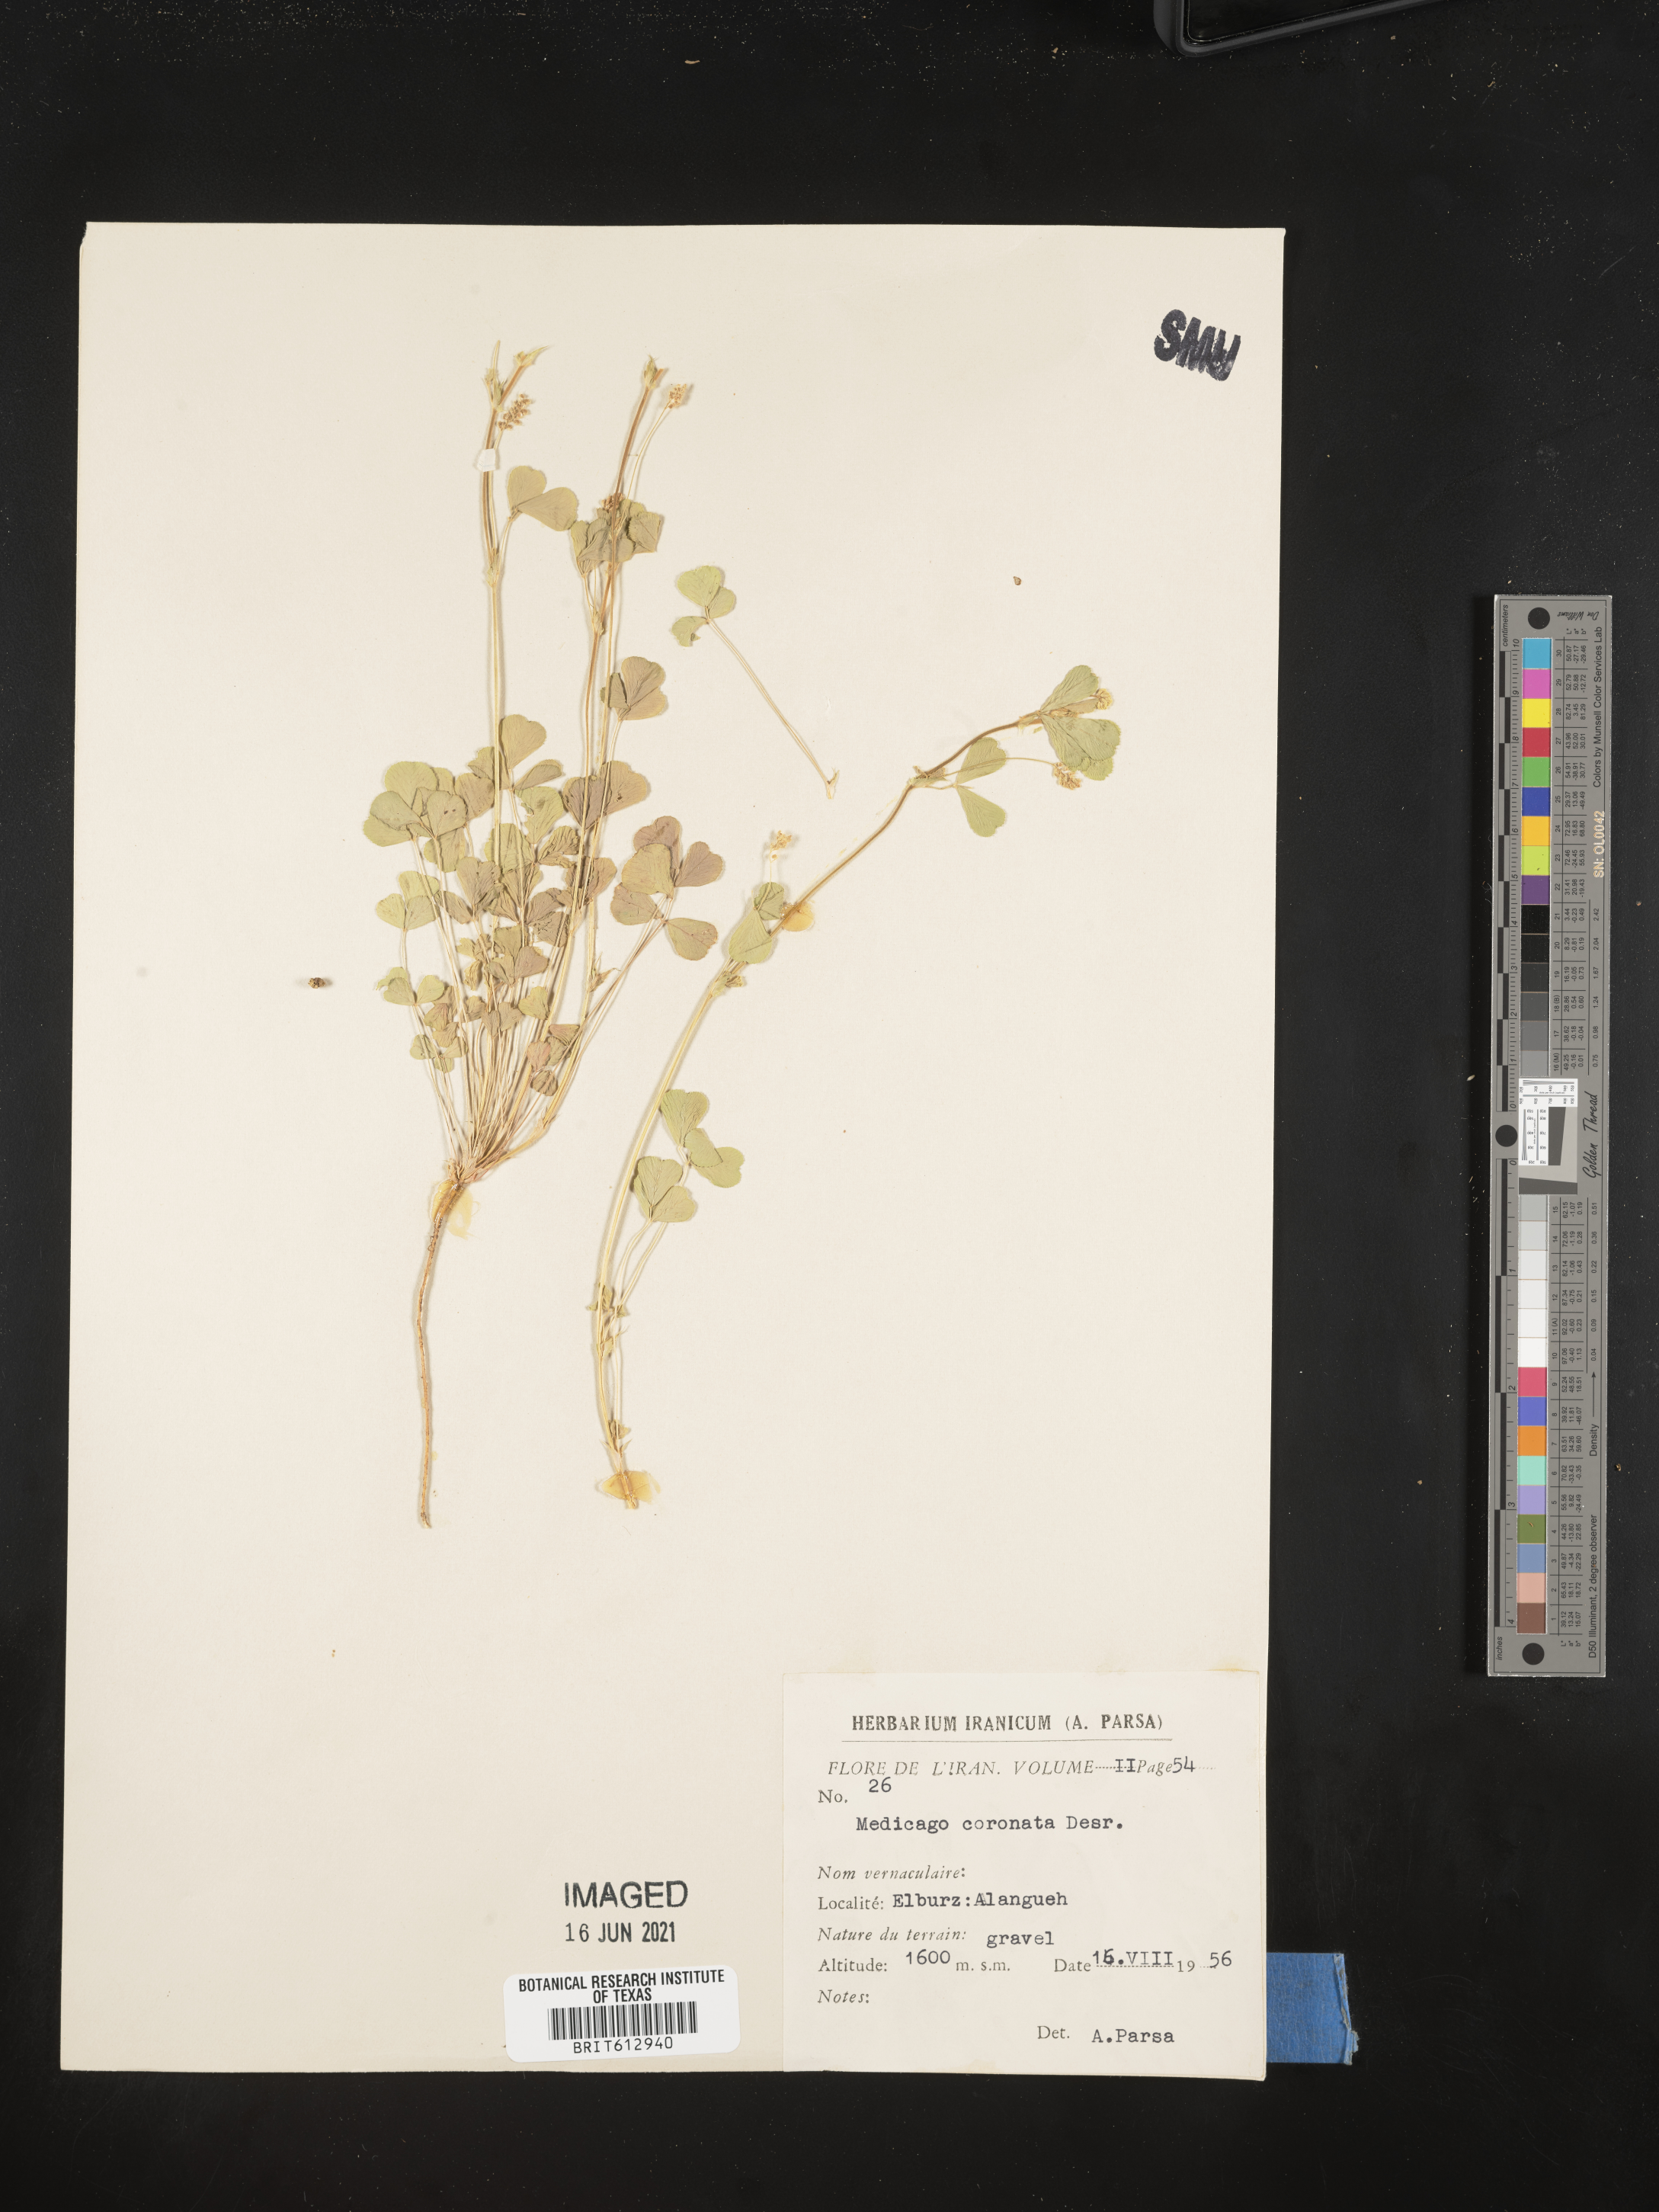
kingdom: Plantae
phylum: Tracheophyta
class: Magnoliopsida
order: Fabales
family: Fabaceae
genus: Medicago
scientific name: Medicago coronata
